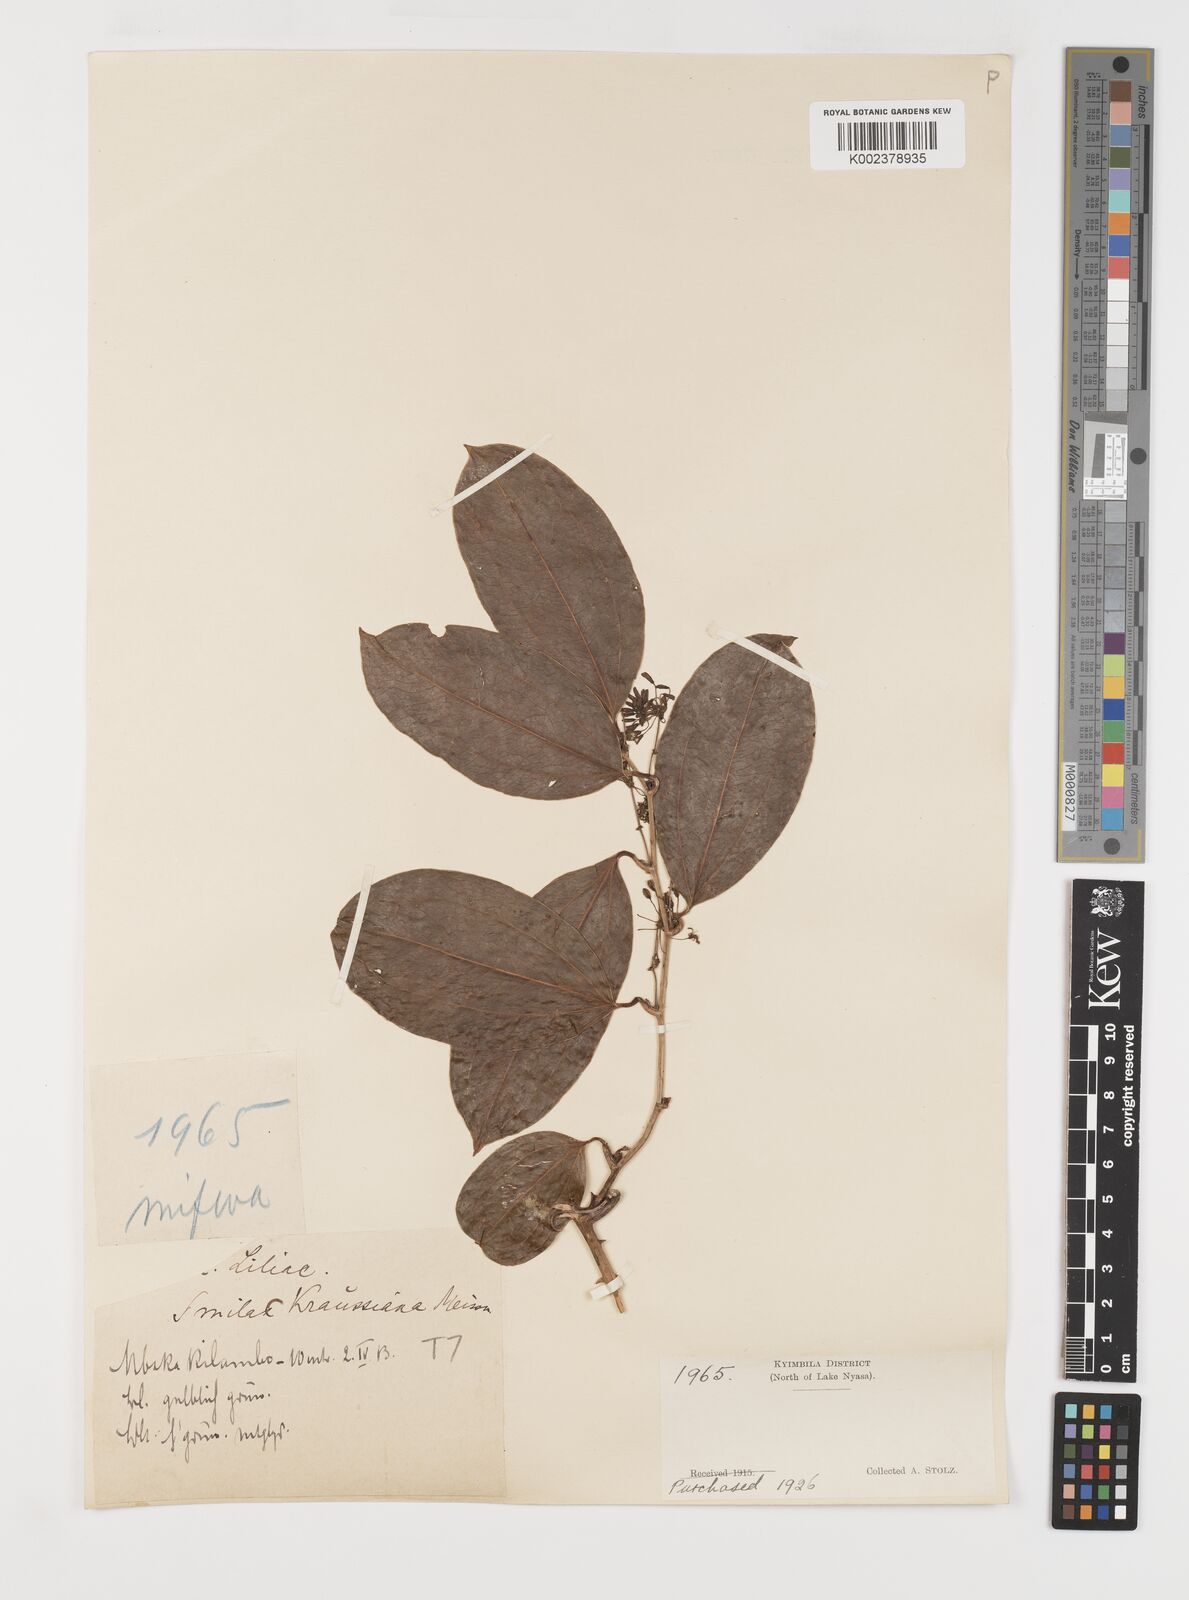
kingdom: Plantae
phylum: Tracheophyta
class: Liliopsida
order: Liliales
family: Smilacaceae
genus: Smilax
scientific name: Smilax anceps
